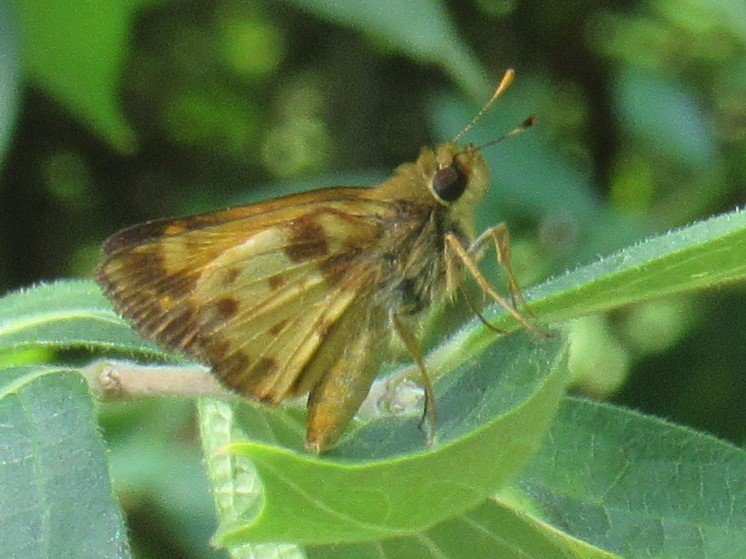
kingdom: Animalia
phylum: Arthropoda
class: Insecta
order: Lepidoptera
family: Hesperiidae
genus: Lon
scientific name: Lon zabulon
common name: Zabulon Skipper
